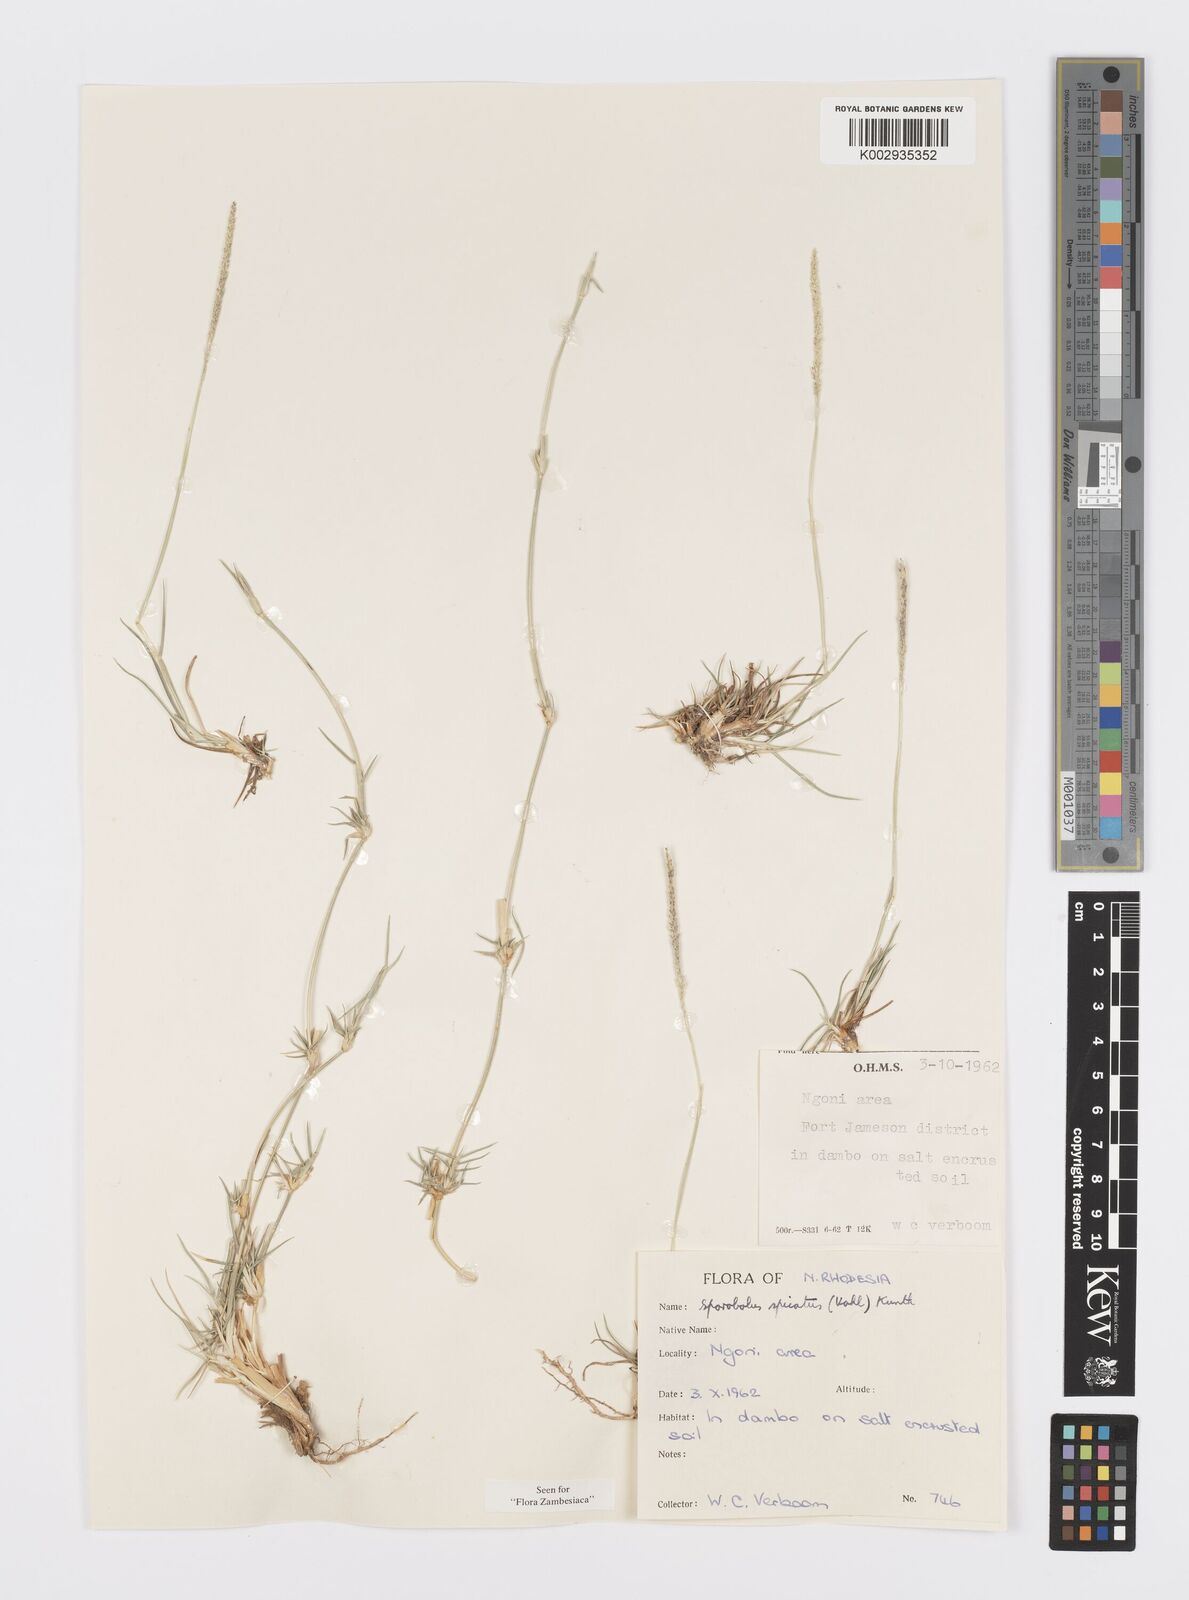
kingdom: Plantae
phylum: Tracheophyta
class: Liliopsida
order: Poales
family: Poaceae
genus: Sporobolus
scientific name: Sporobolus spicatus
